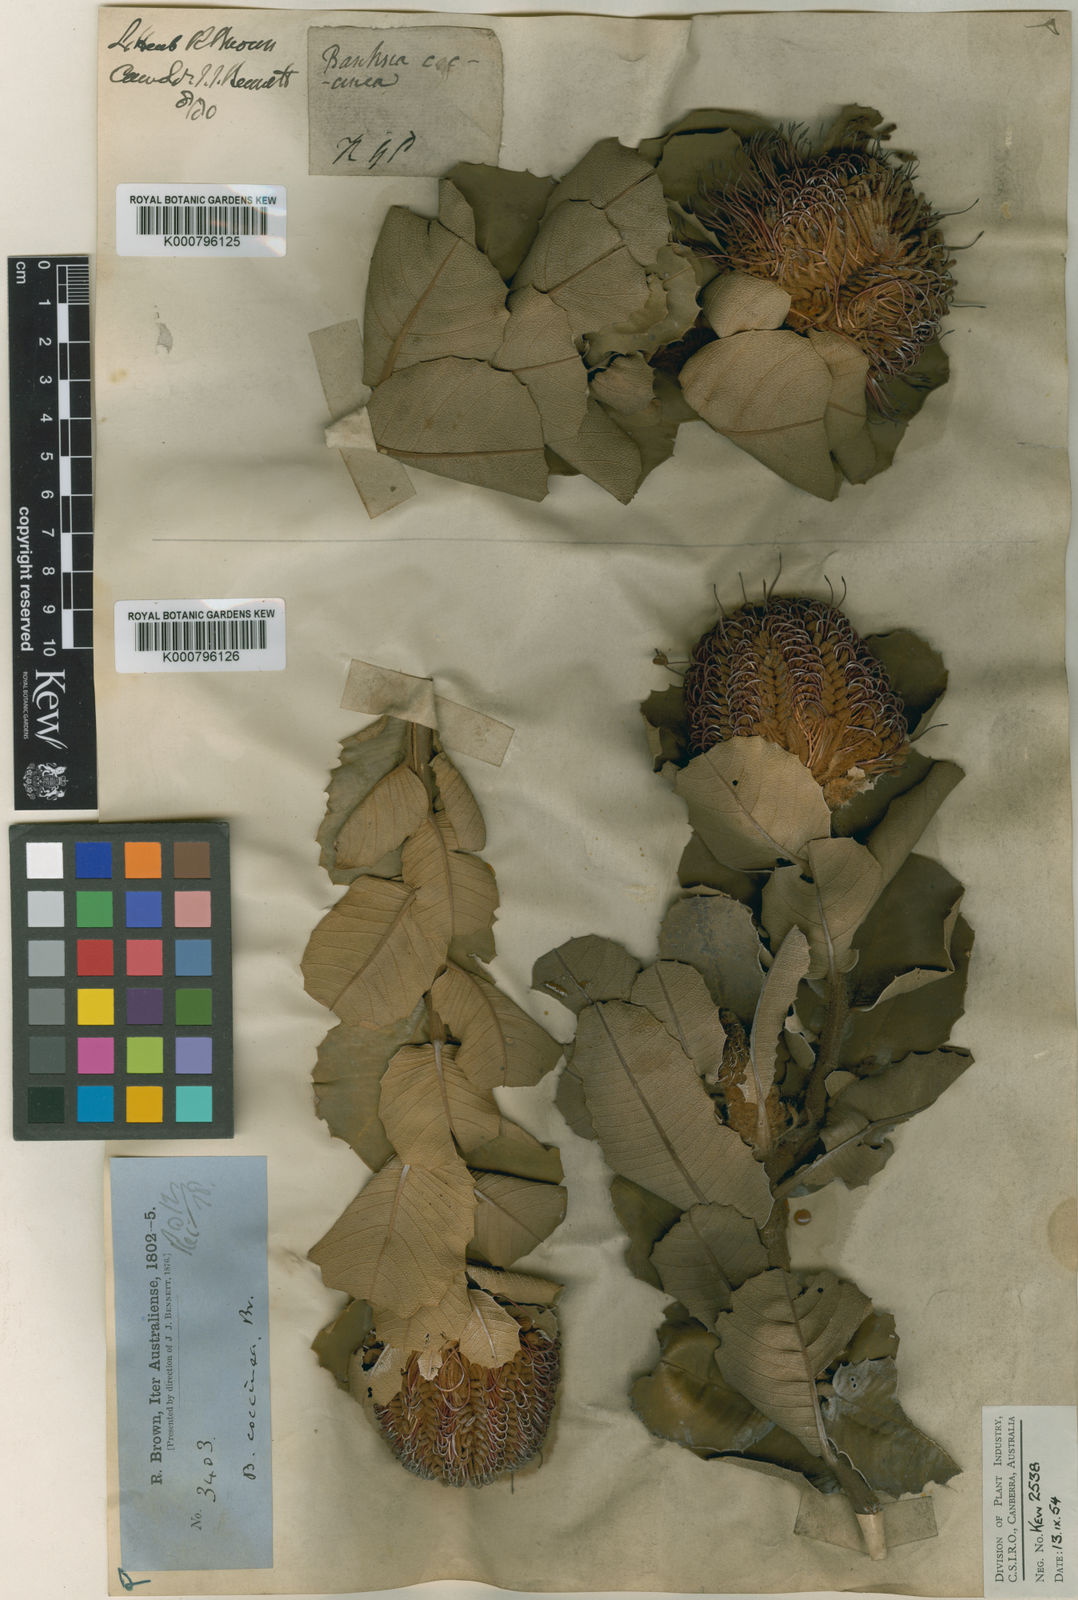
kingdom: Plantae
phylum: Tracheophyta
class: Magnoliopsida
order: Proteales
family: Proteaceae
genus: Banksia
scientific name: Banksia coccinea
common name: Scarlet banksia
